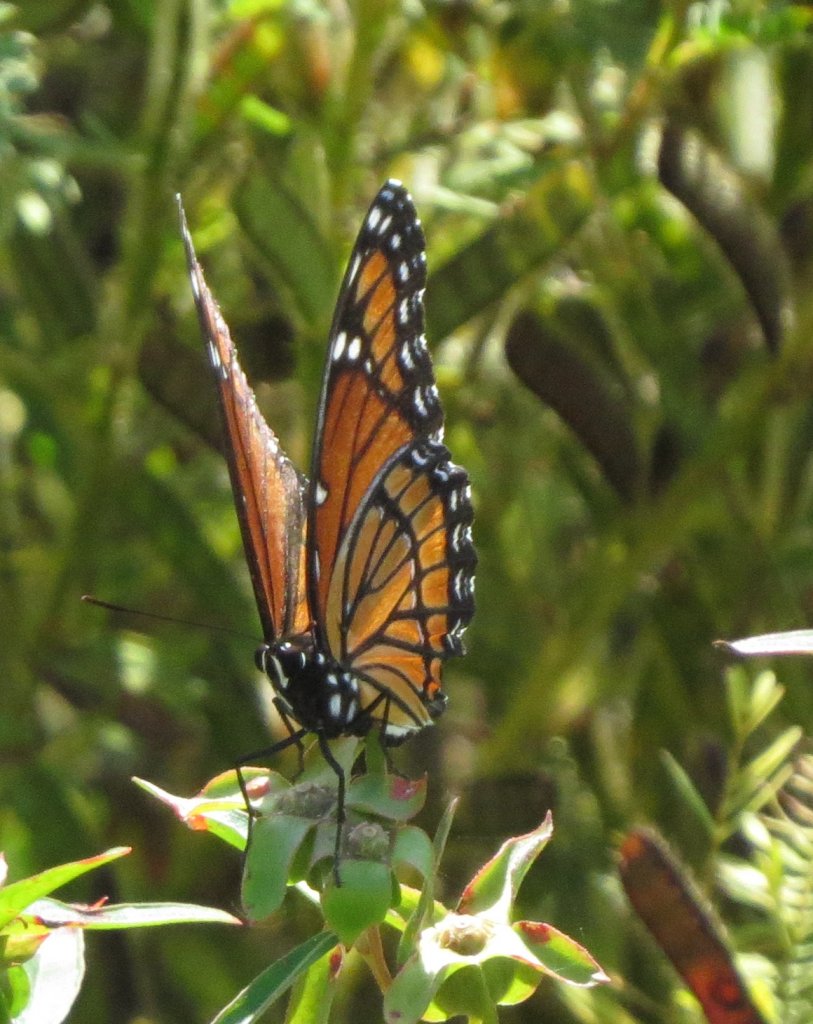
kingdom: Animalia
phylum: Arthropoda
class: Insecta
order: Lepidoptera
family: Nymphalidae
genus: Limenitis
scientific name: Limenitis archippus
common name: Viceroy
